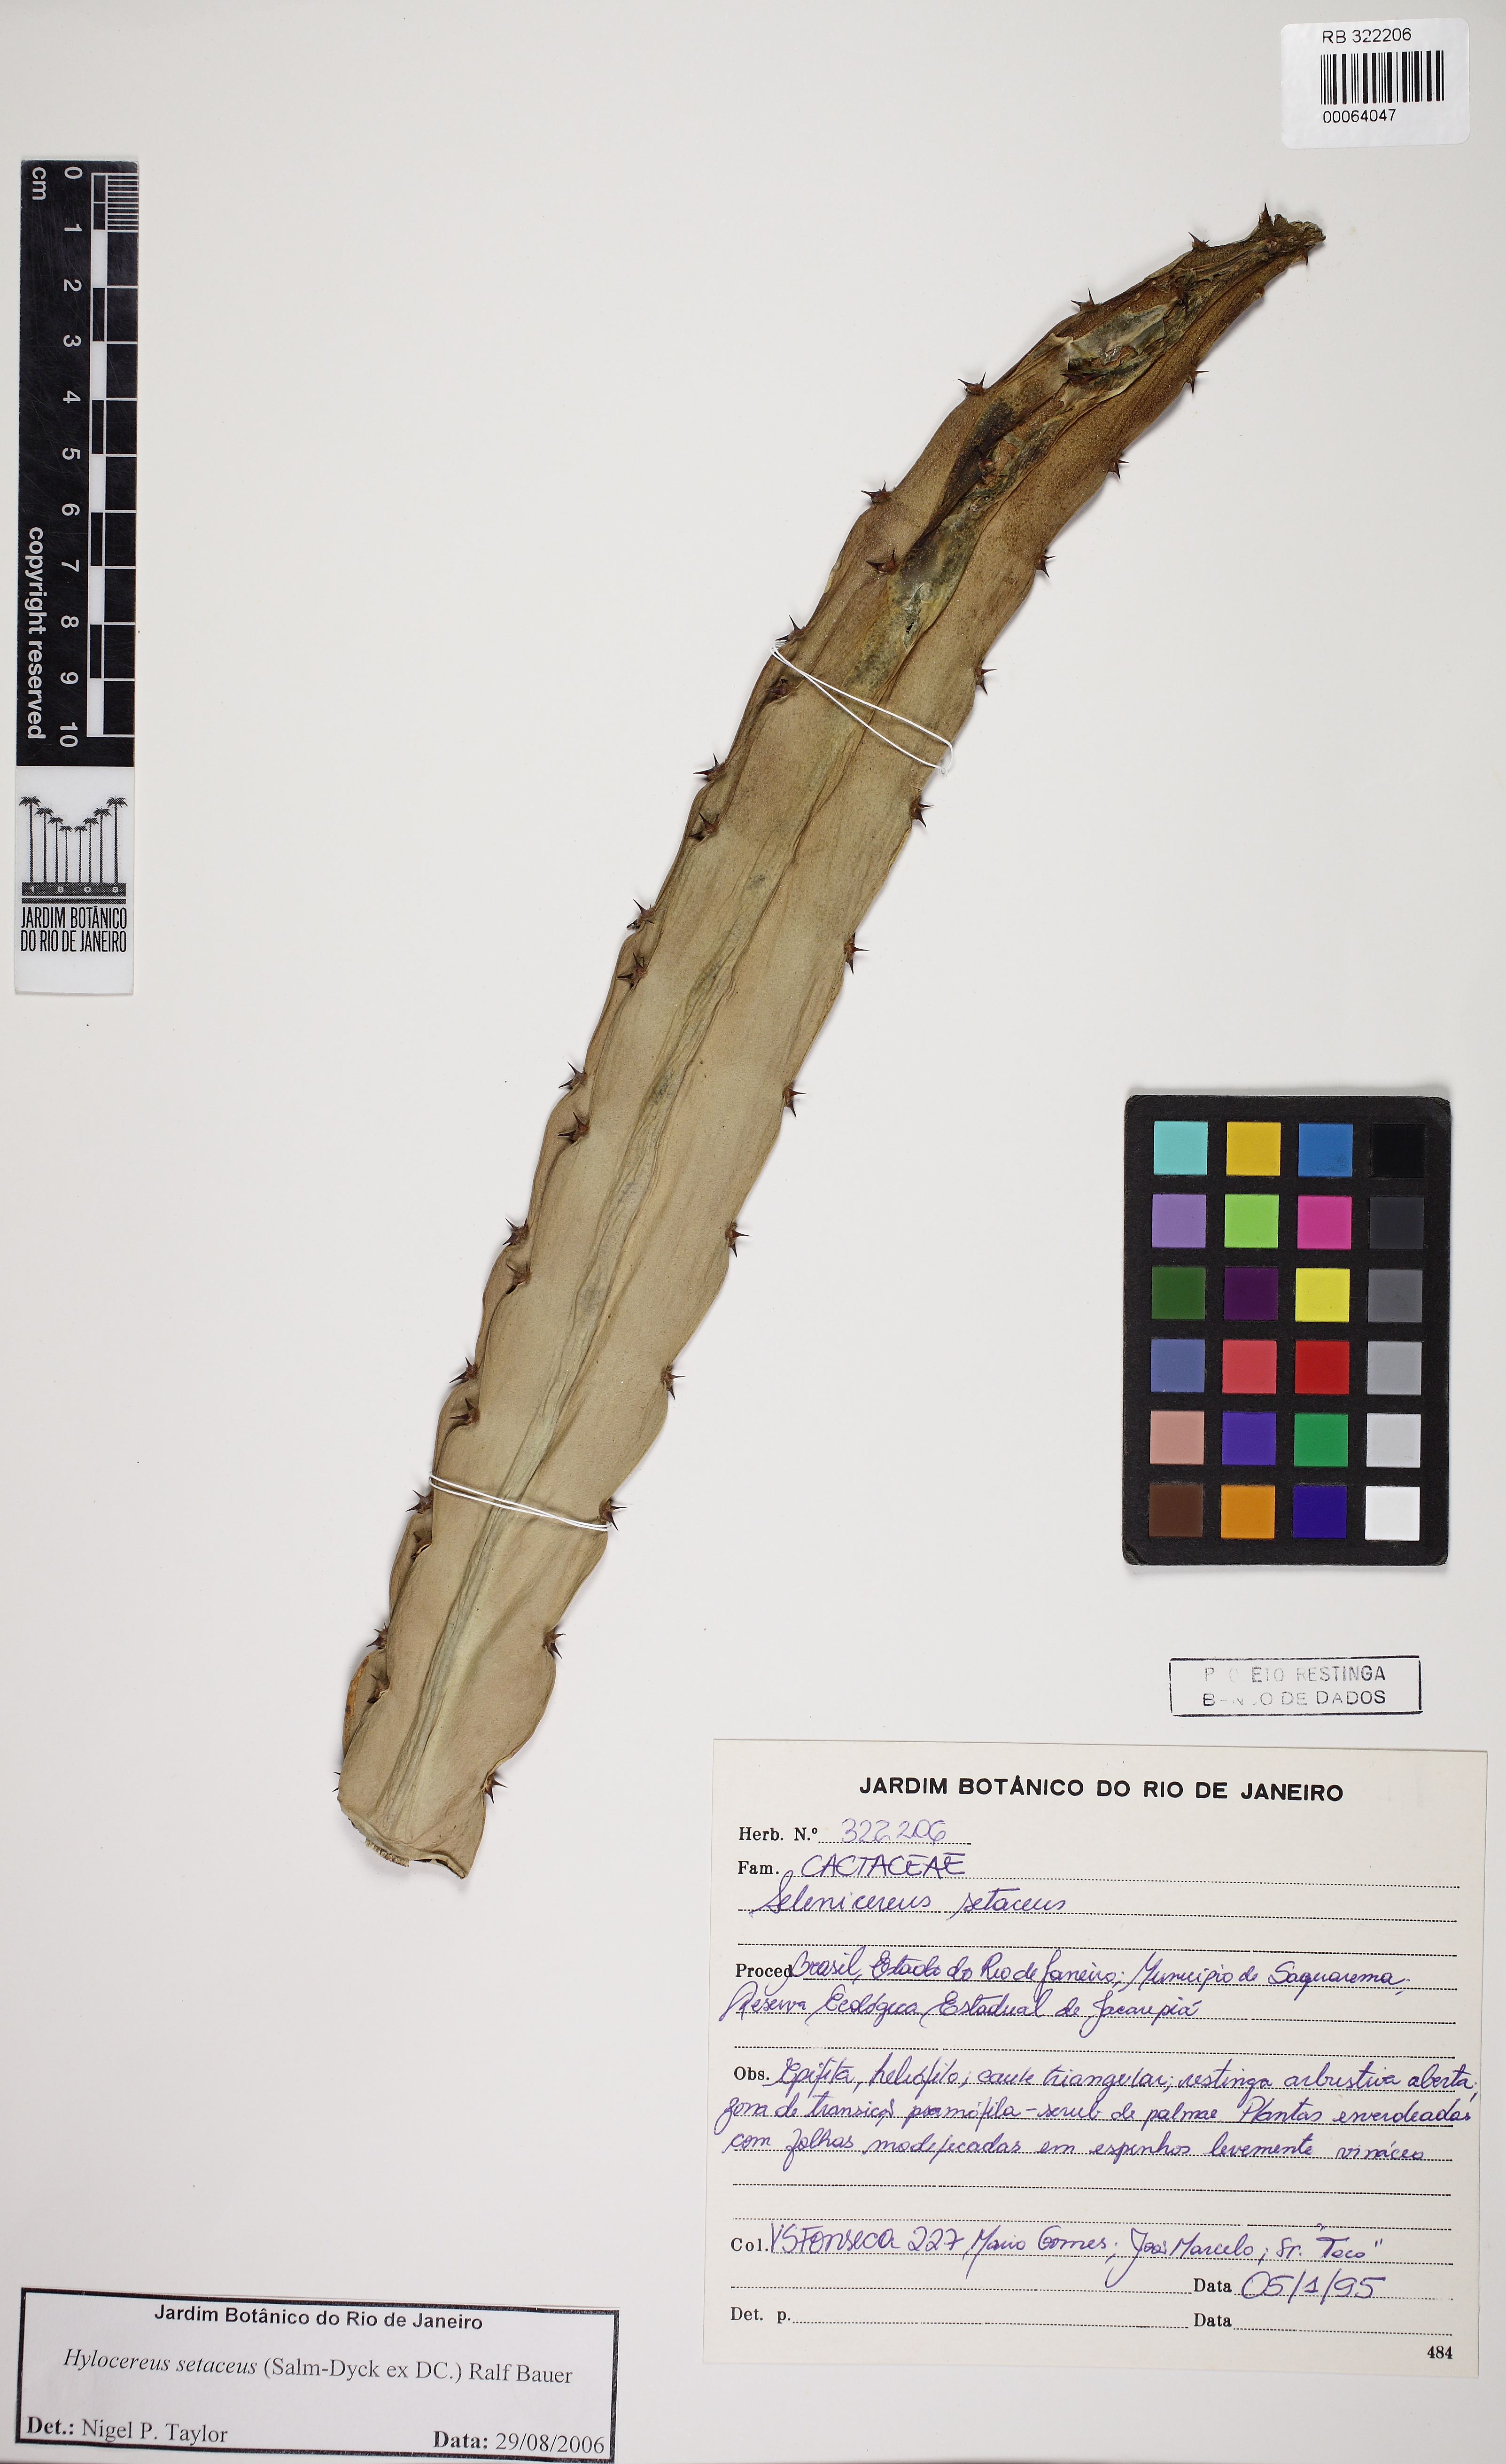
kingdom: Plantae
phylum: Tracheophyta
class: Magnoliopsida
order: Caryophyllales
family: Cactaceae
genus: Selenicereus
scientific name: Selenicereus setaceus
